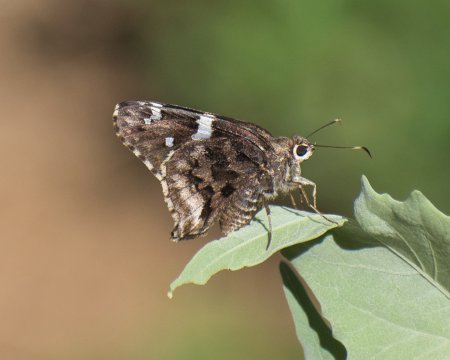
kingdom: Animalia
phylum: Arthropoda
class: Insecta
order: Lepidoptera
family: Hesperiidae
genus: Codatractus
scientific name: Codatractus arizonensis
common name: Arizona Skipper
